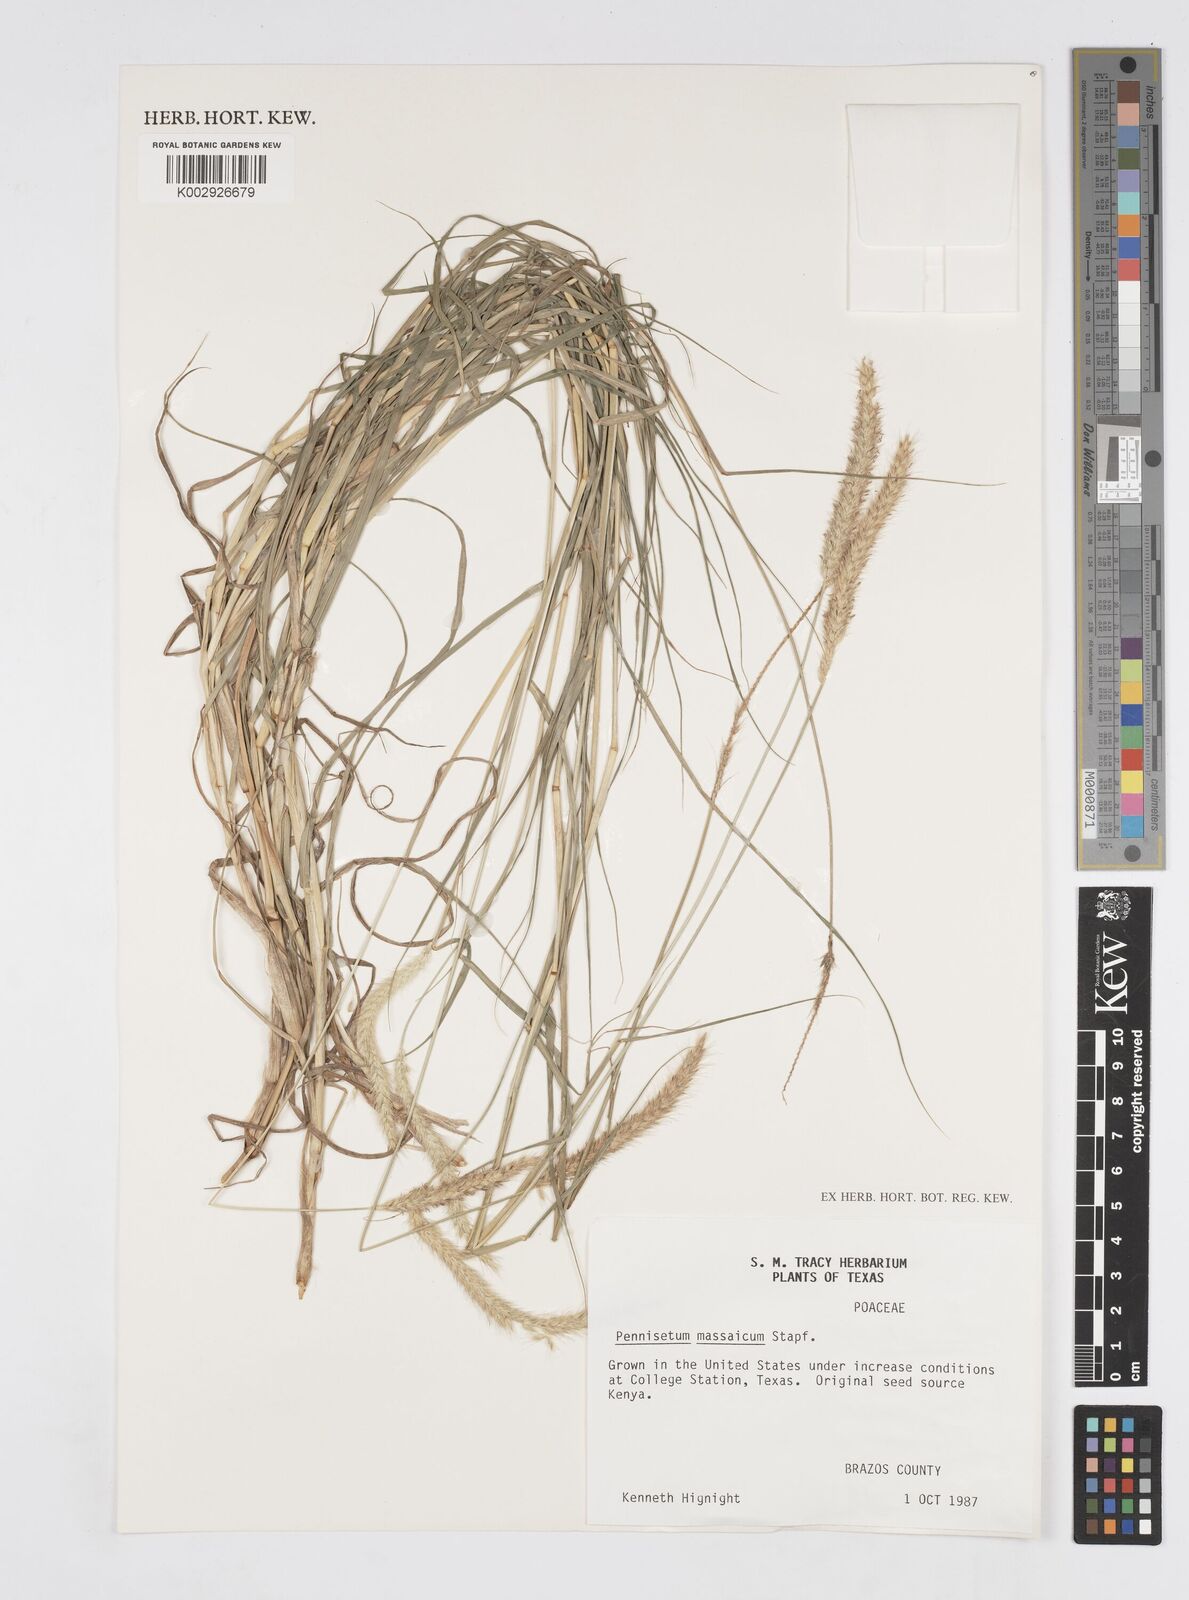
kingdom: Plantae
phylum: Tracheophyta
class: Liliopsida
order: Poales
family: Poaceae
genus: Cenchrus
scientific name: Cenchrus massaicus
